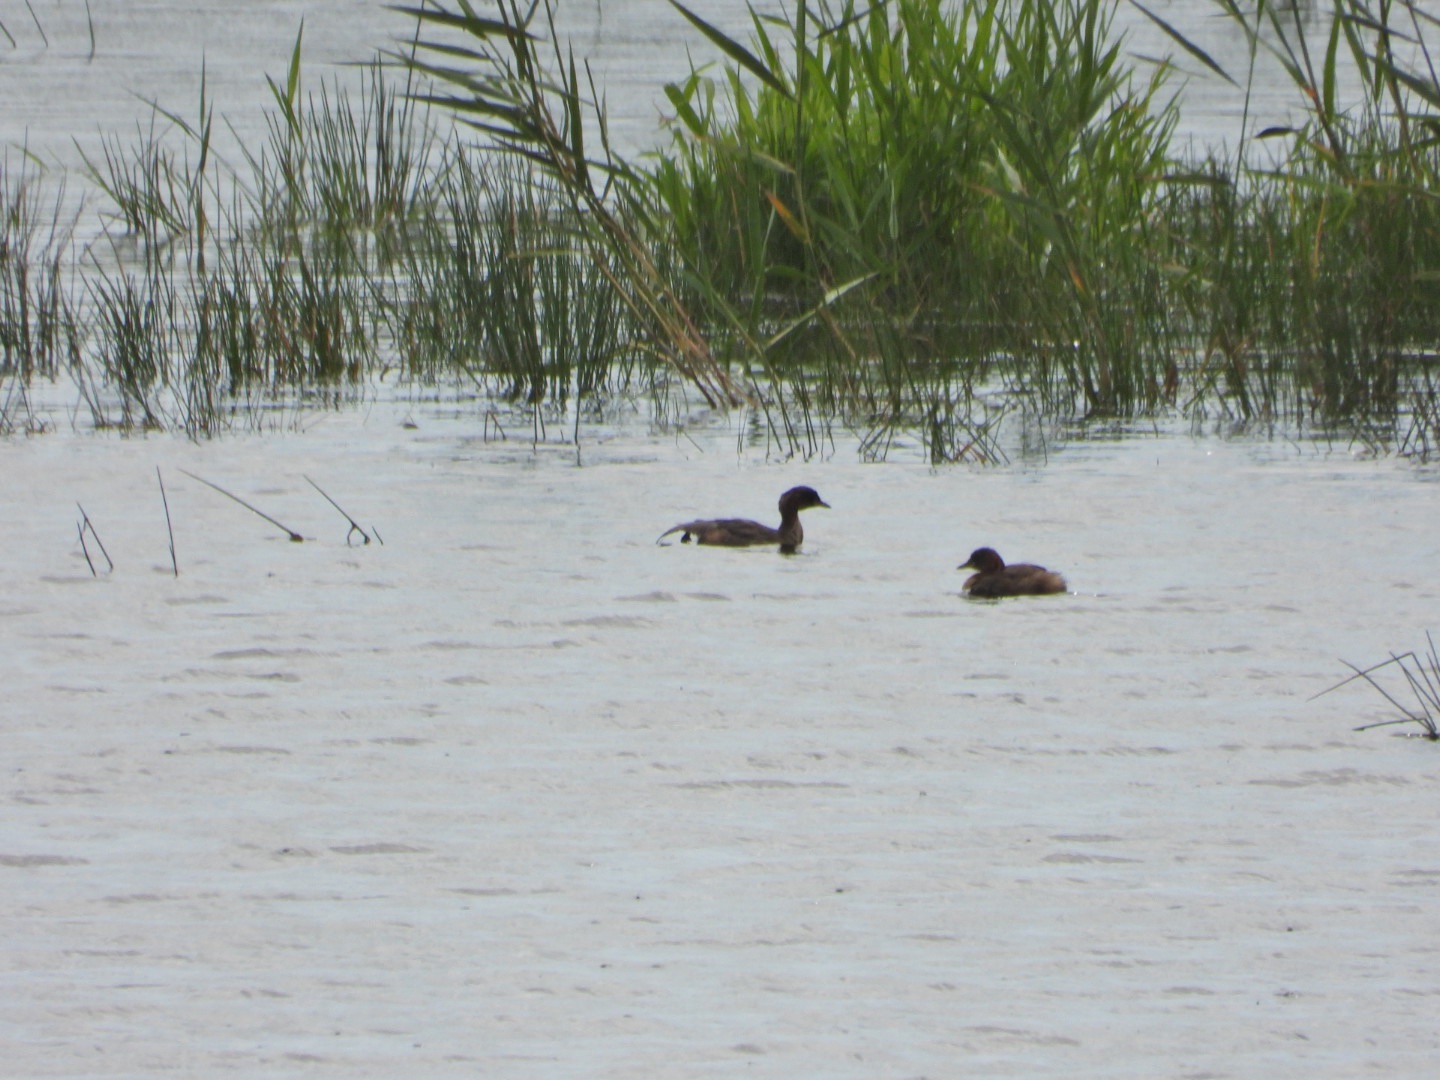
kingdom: Animalia
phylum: Chordata
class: Aves
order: Podicipediformes
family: Podicipedidae
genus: Tachybaptus
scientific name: Tachybaptus ruficollis
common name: Lille lappedykker
